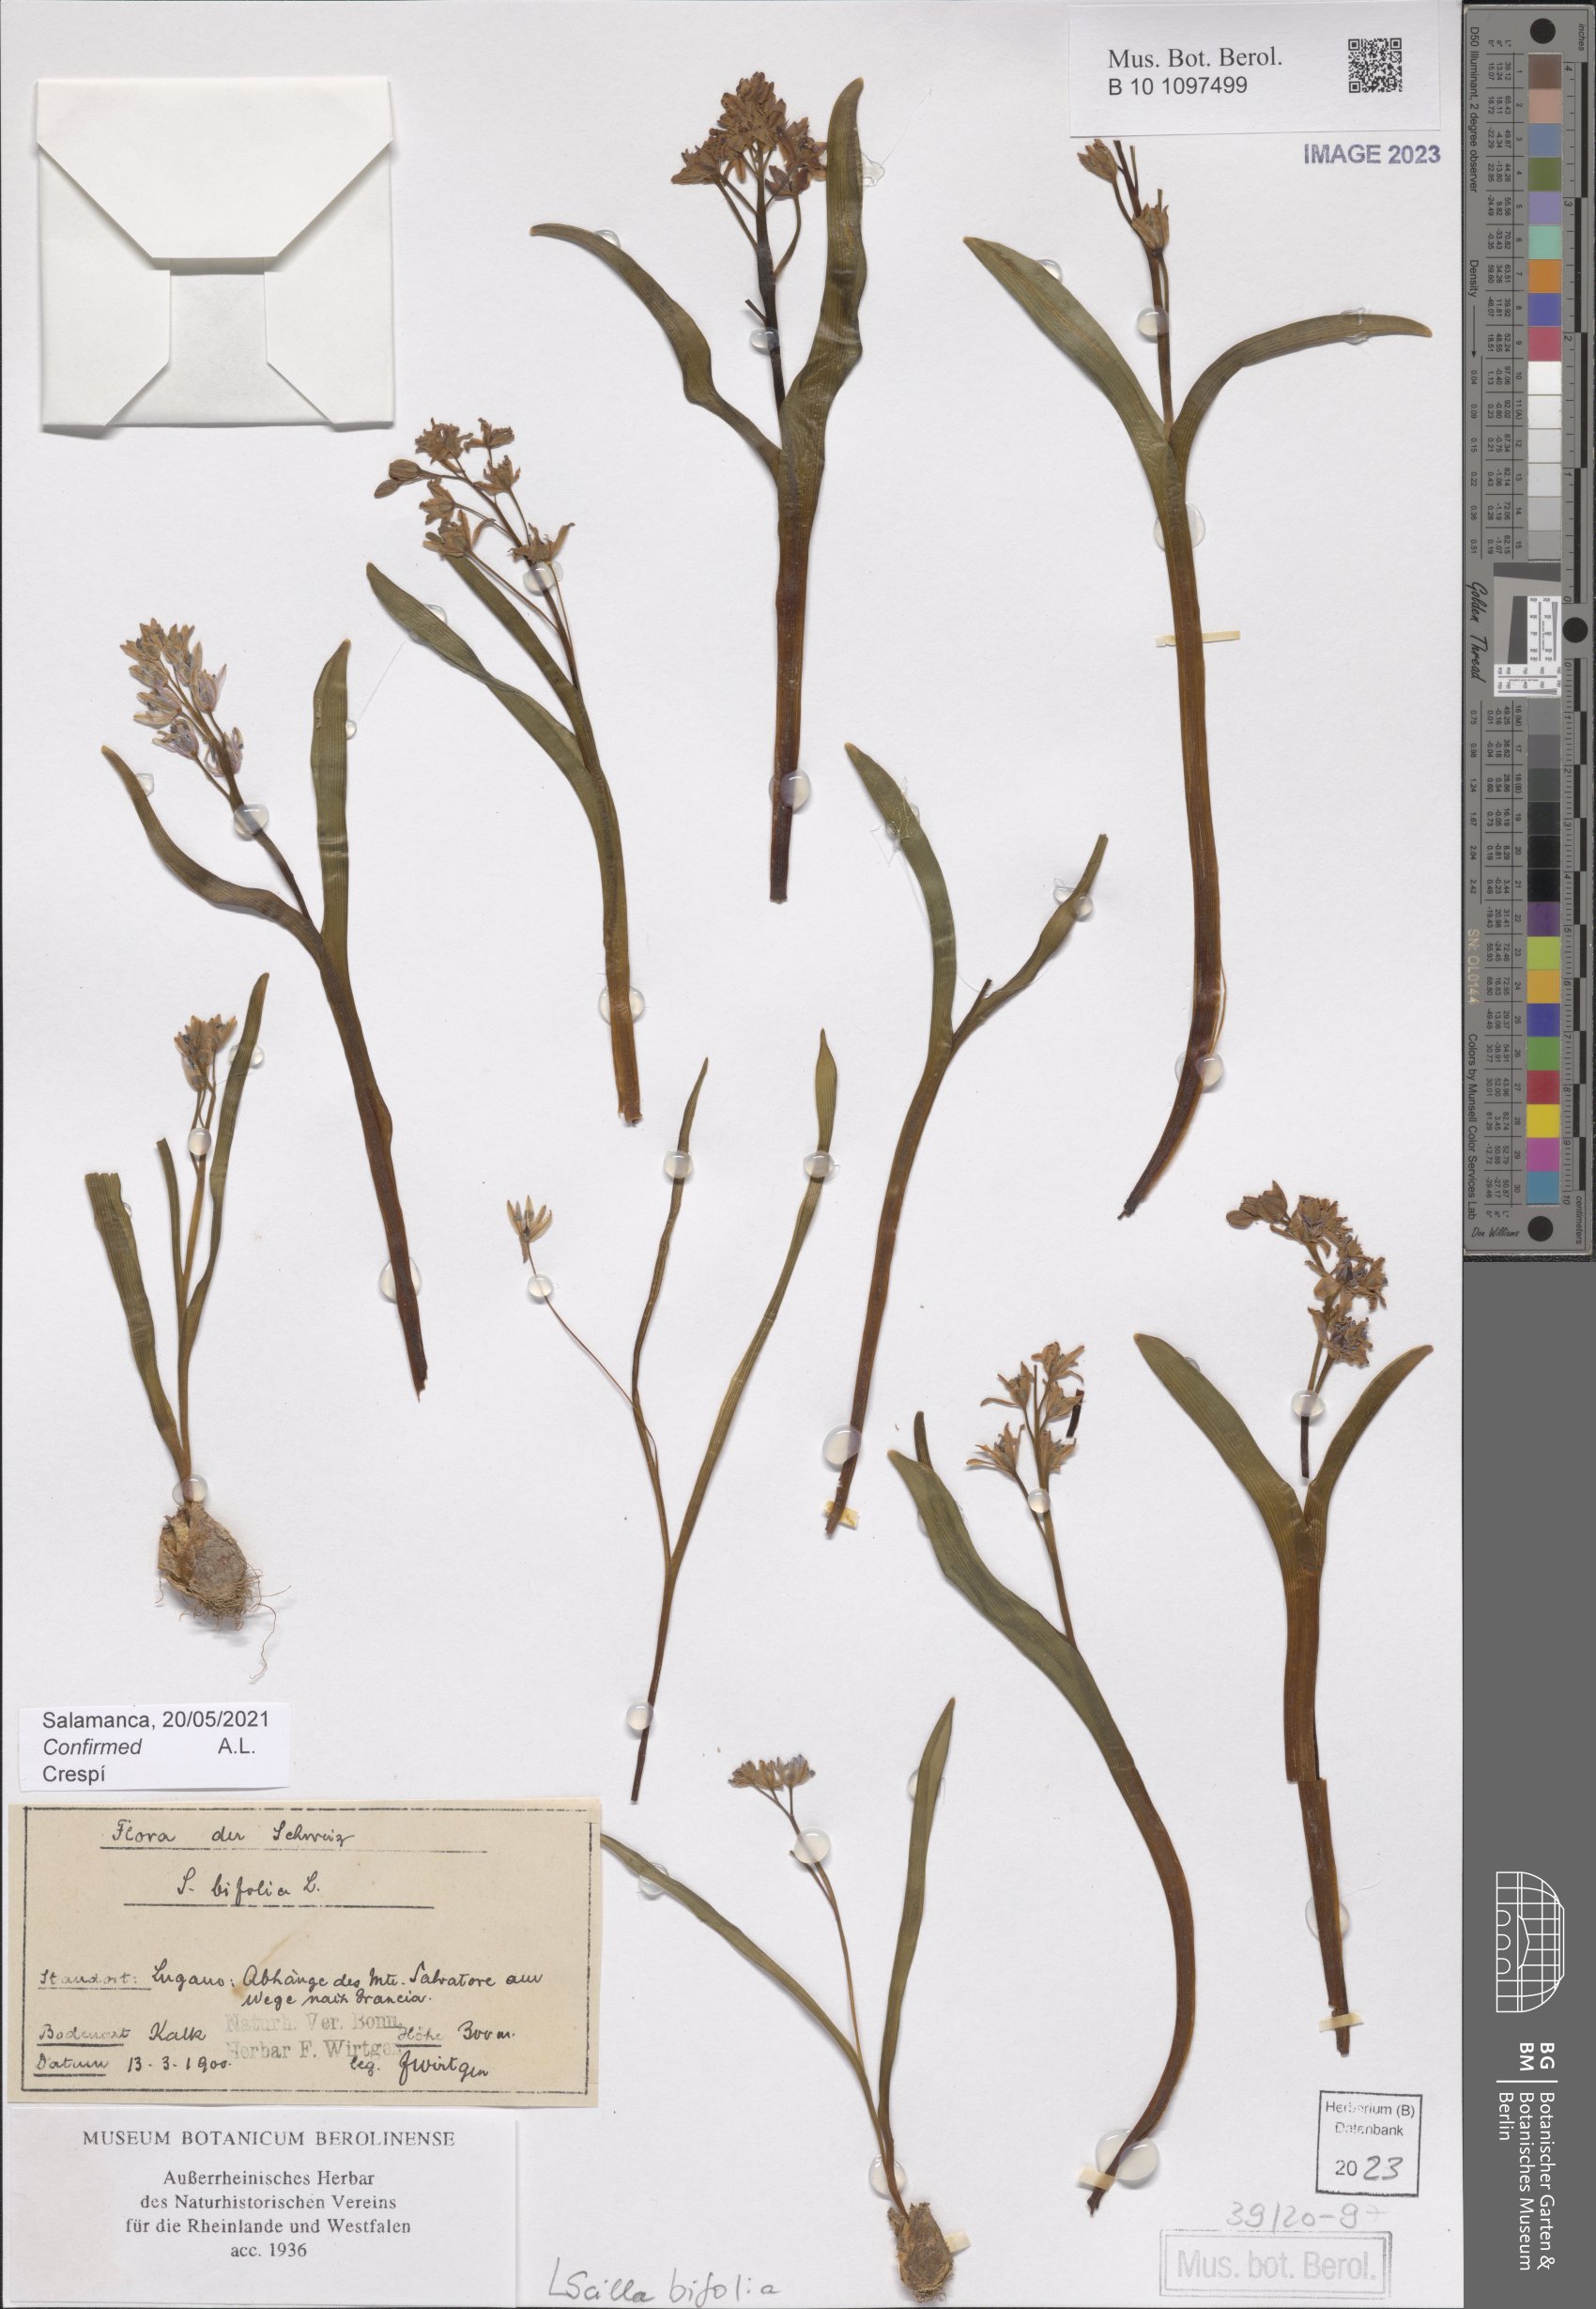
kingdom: Plantae
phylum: Tracheophyta
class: Liliopsida
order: Asparagales
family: Asparagaceae
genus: Scilla
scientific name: Scilla bifolia
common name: Alpine squill
